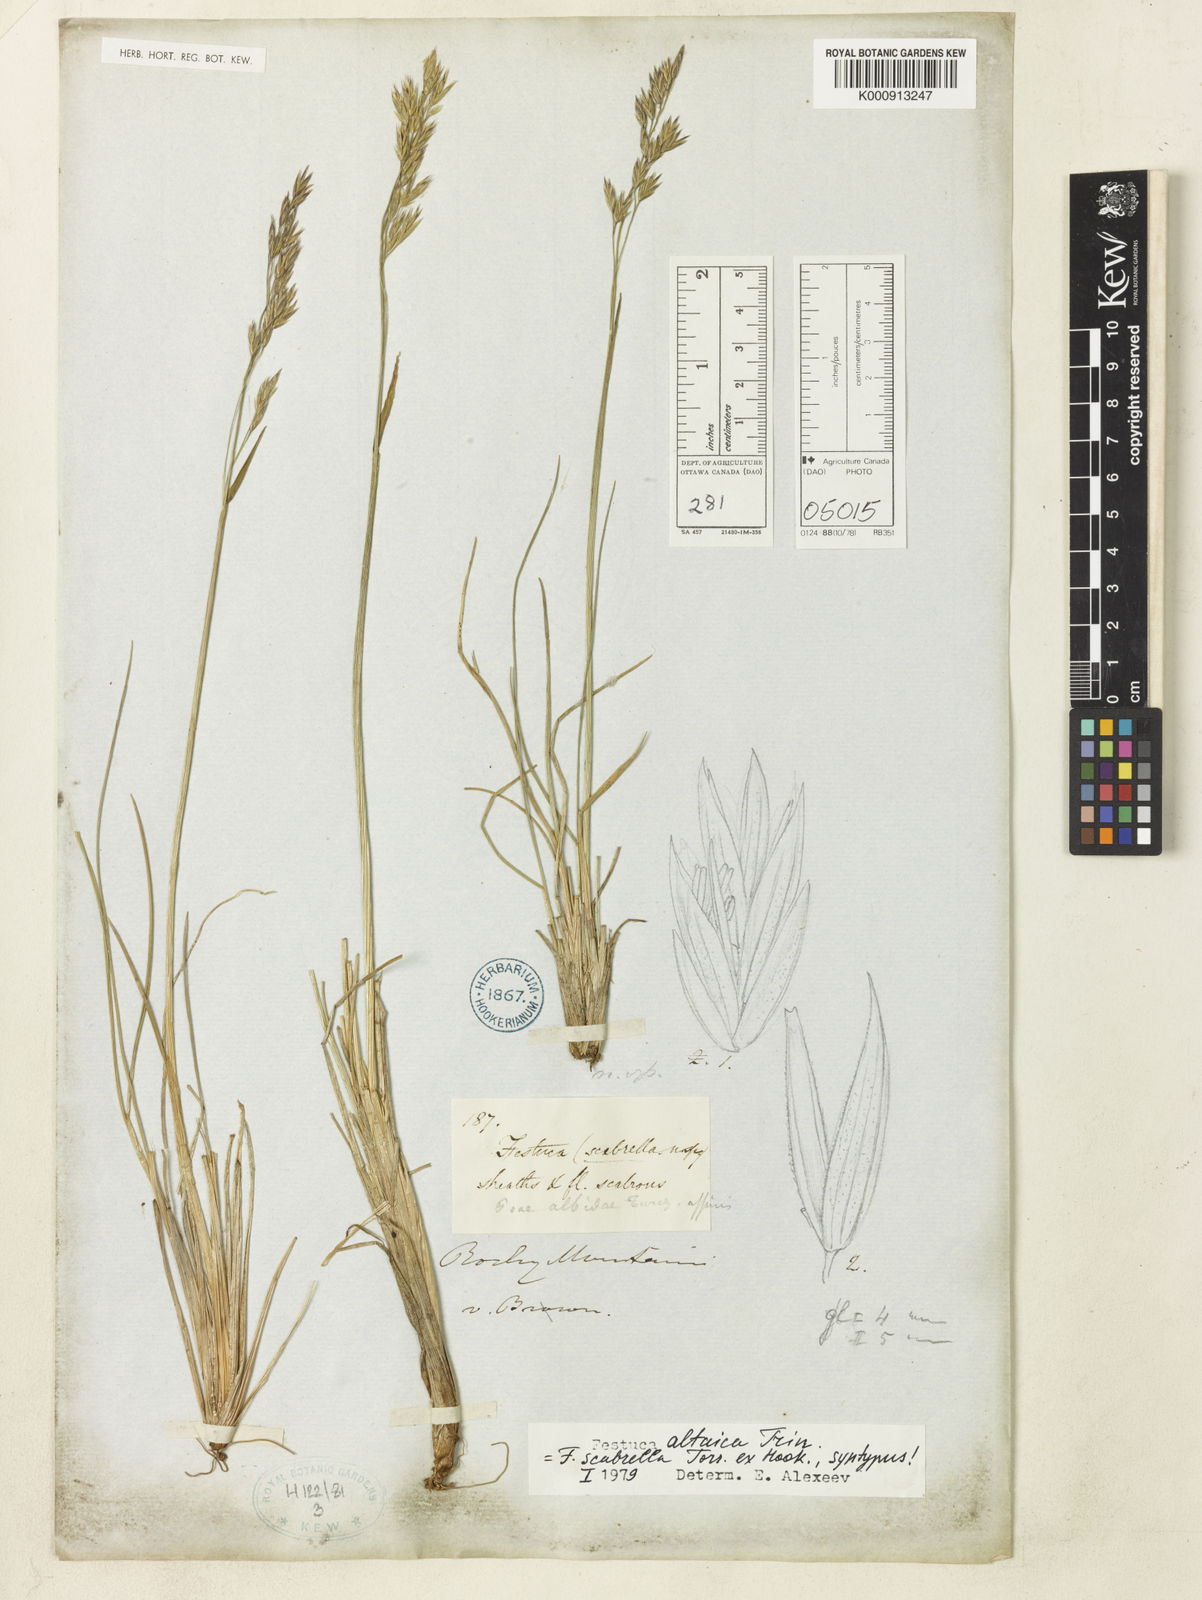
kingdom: Plantae
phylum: Tracheophyta
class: Liliopsida
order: Poales
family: Poaceae
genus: Festuca
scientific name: Festuca altaica
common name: Northern rough fescue
